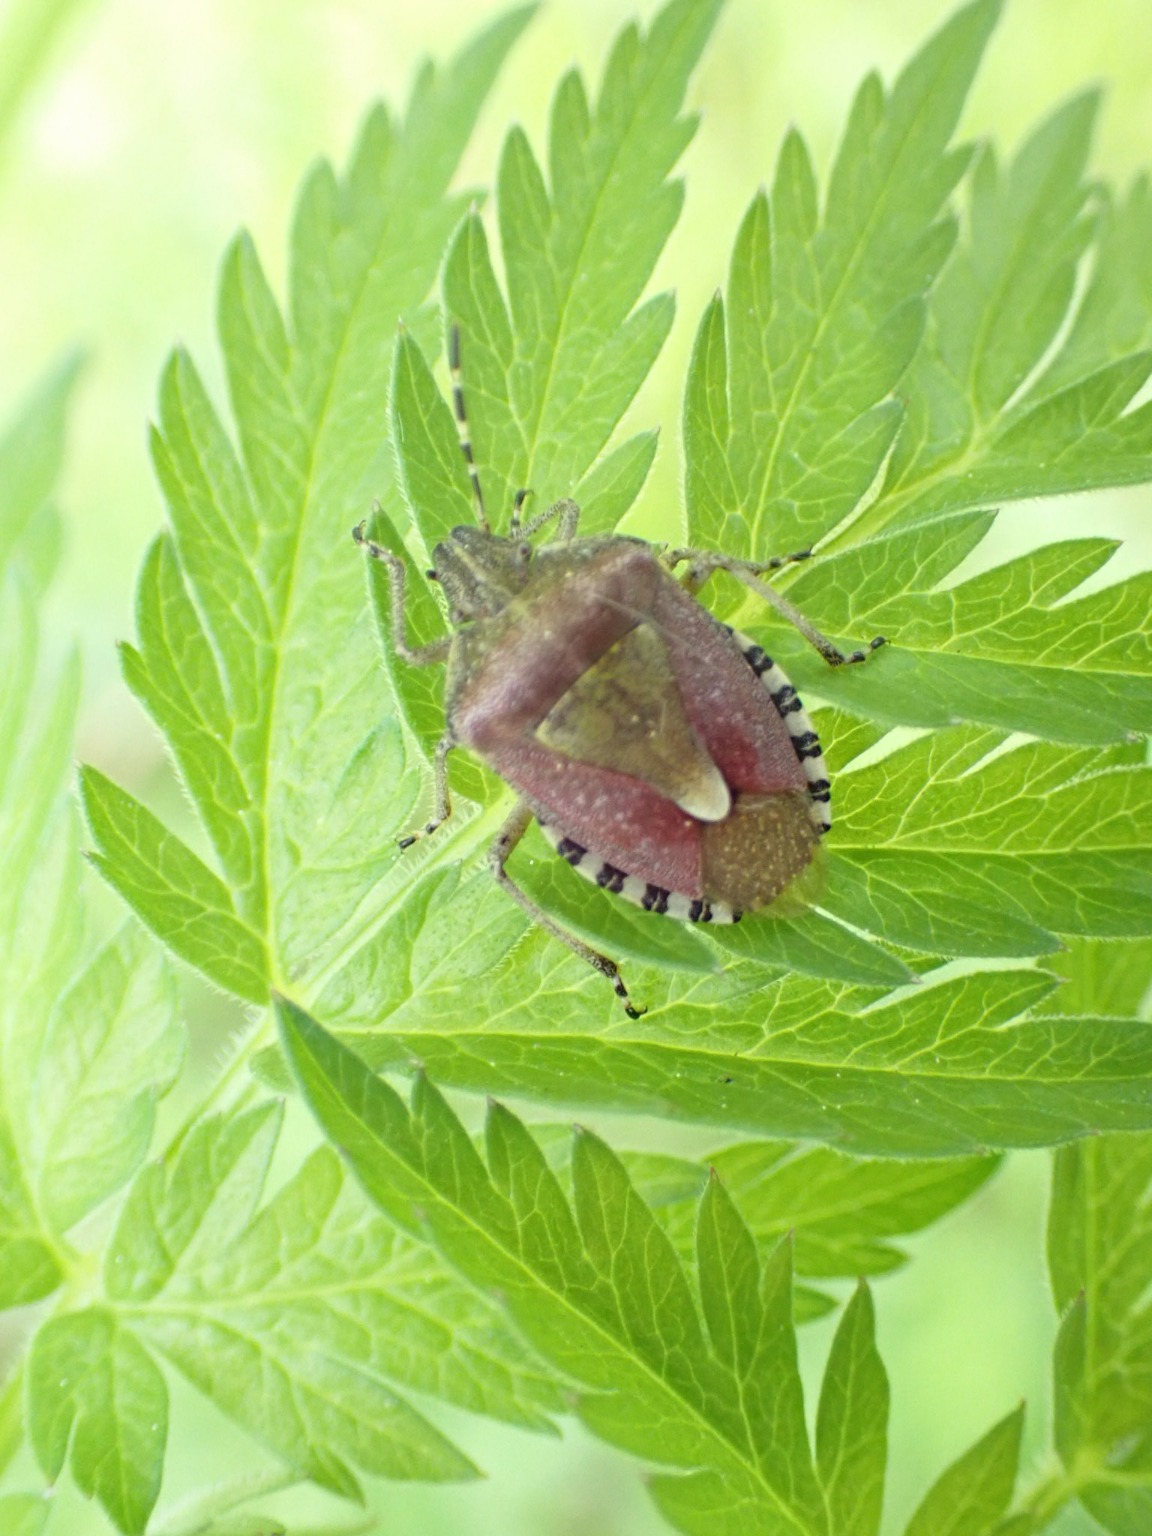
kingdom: Animalia
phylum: Arthropoda
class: Insecta
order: Hemiptera
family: Pentatomidae
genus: Dolycoris
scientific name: Dolycoris baccarum
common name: Almindelig bærtæge
